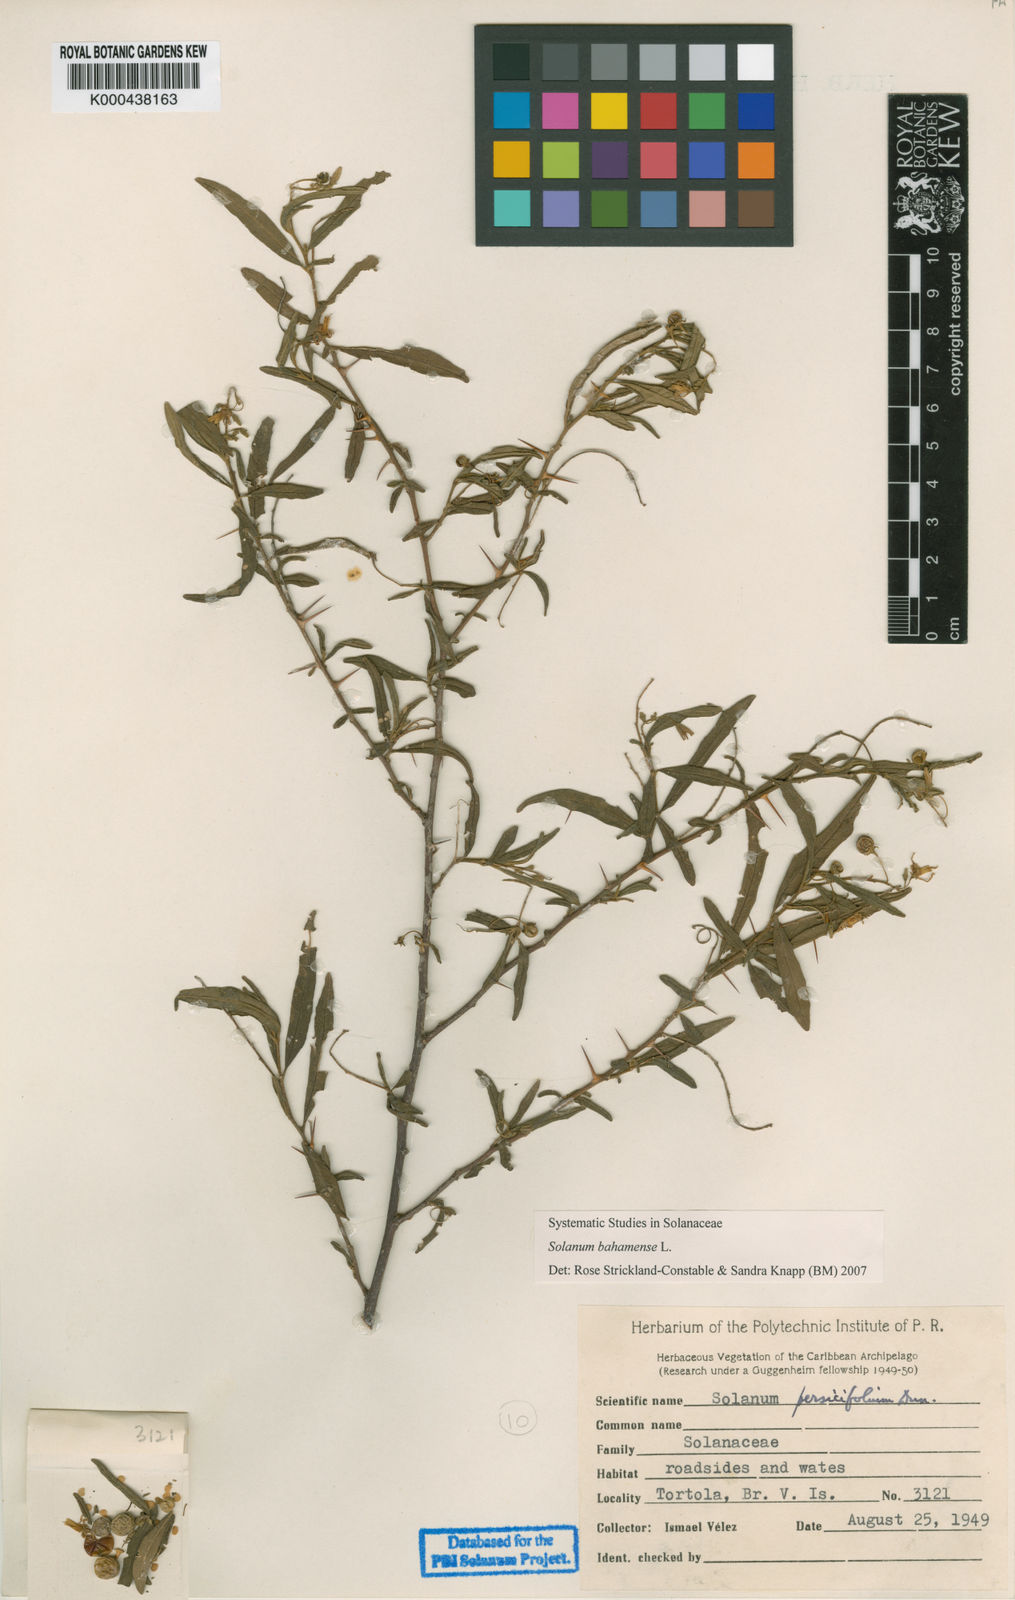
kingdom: Plantae
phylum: Tracheophyta
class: Magnoliopsida
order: Solanales
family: Solanaceae
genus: Solanum
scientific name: Solanum bahamense
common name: Canker-berry
